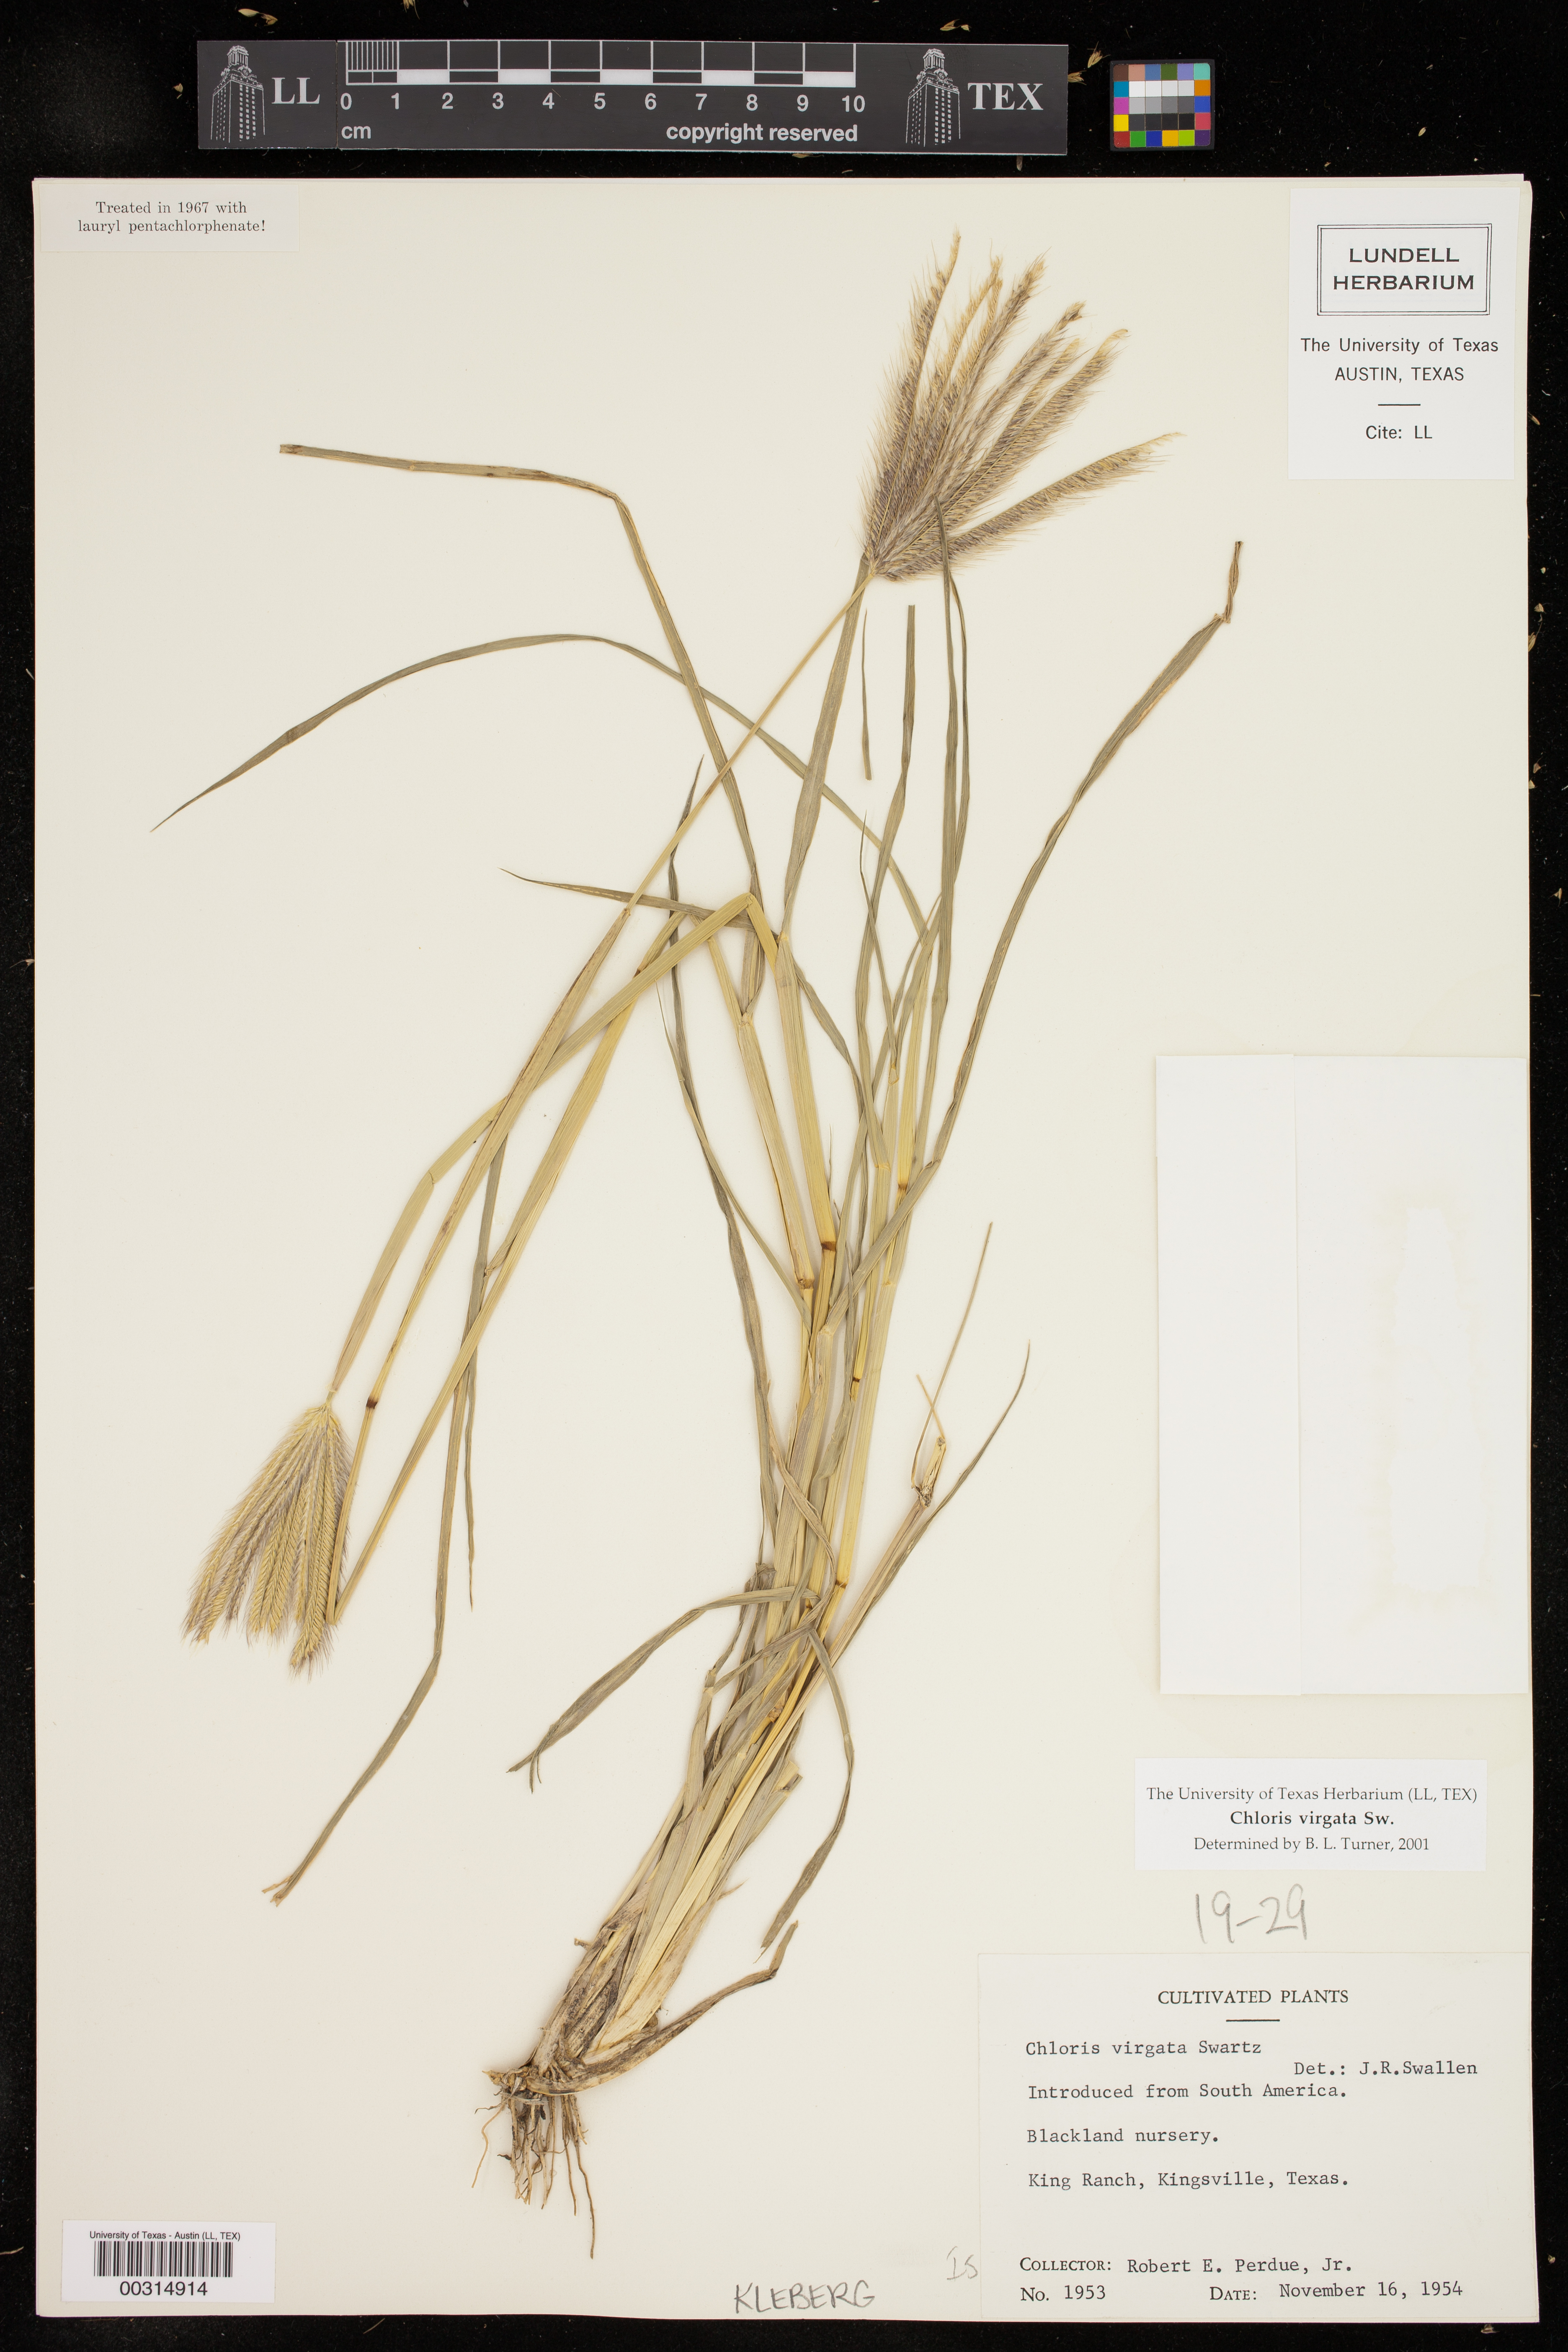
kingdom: Plantae
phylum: Tracheophyta
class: Liliopsida
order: Poales
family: Poaceae
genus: Chloris
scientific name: Chloris virgata
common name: Feathery rhodes-grass
